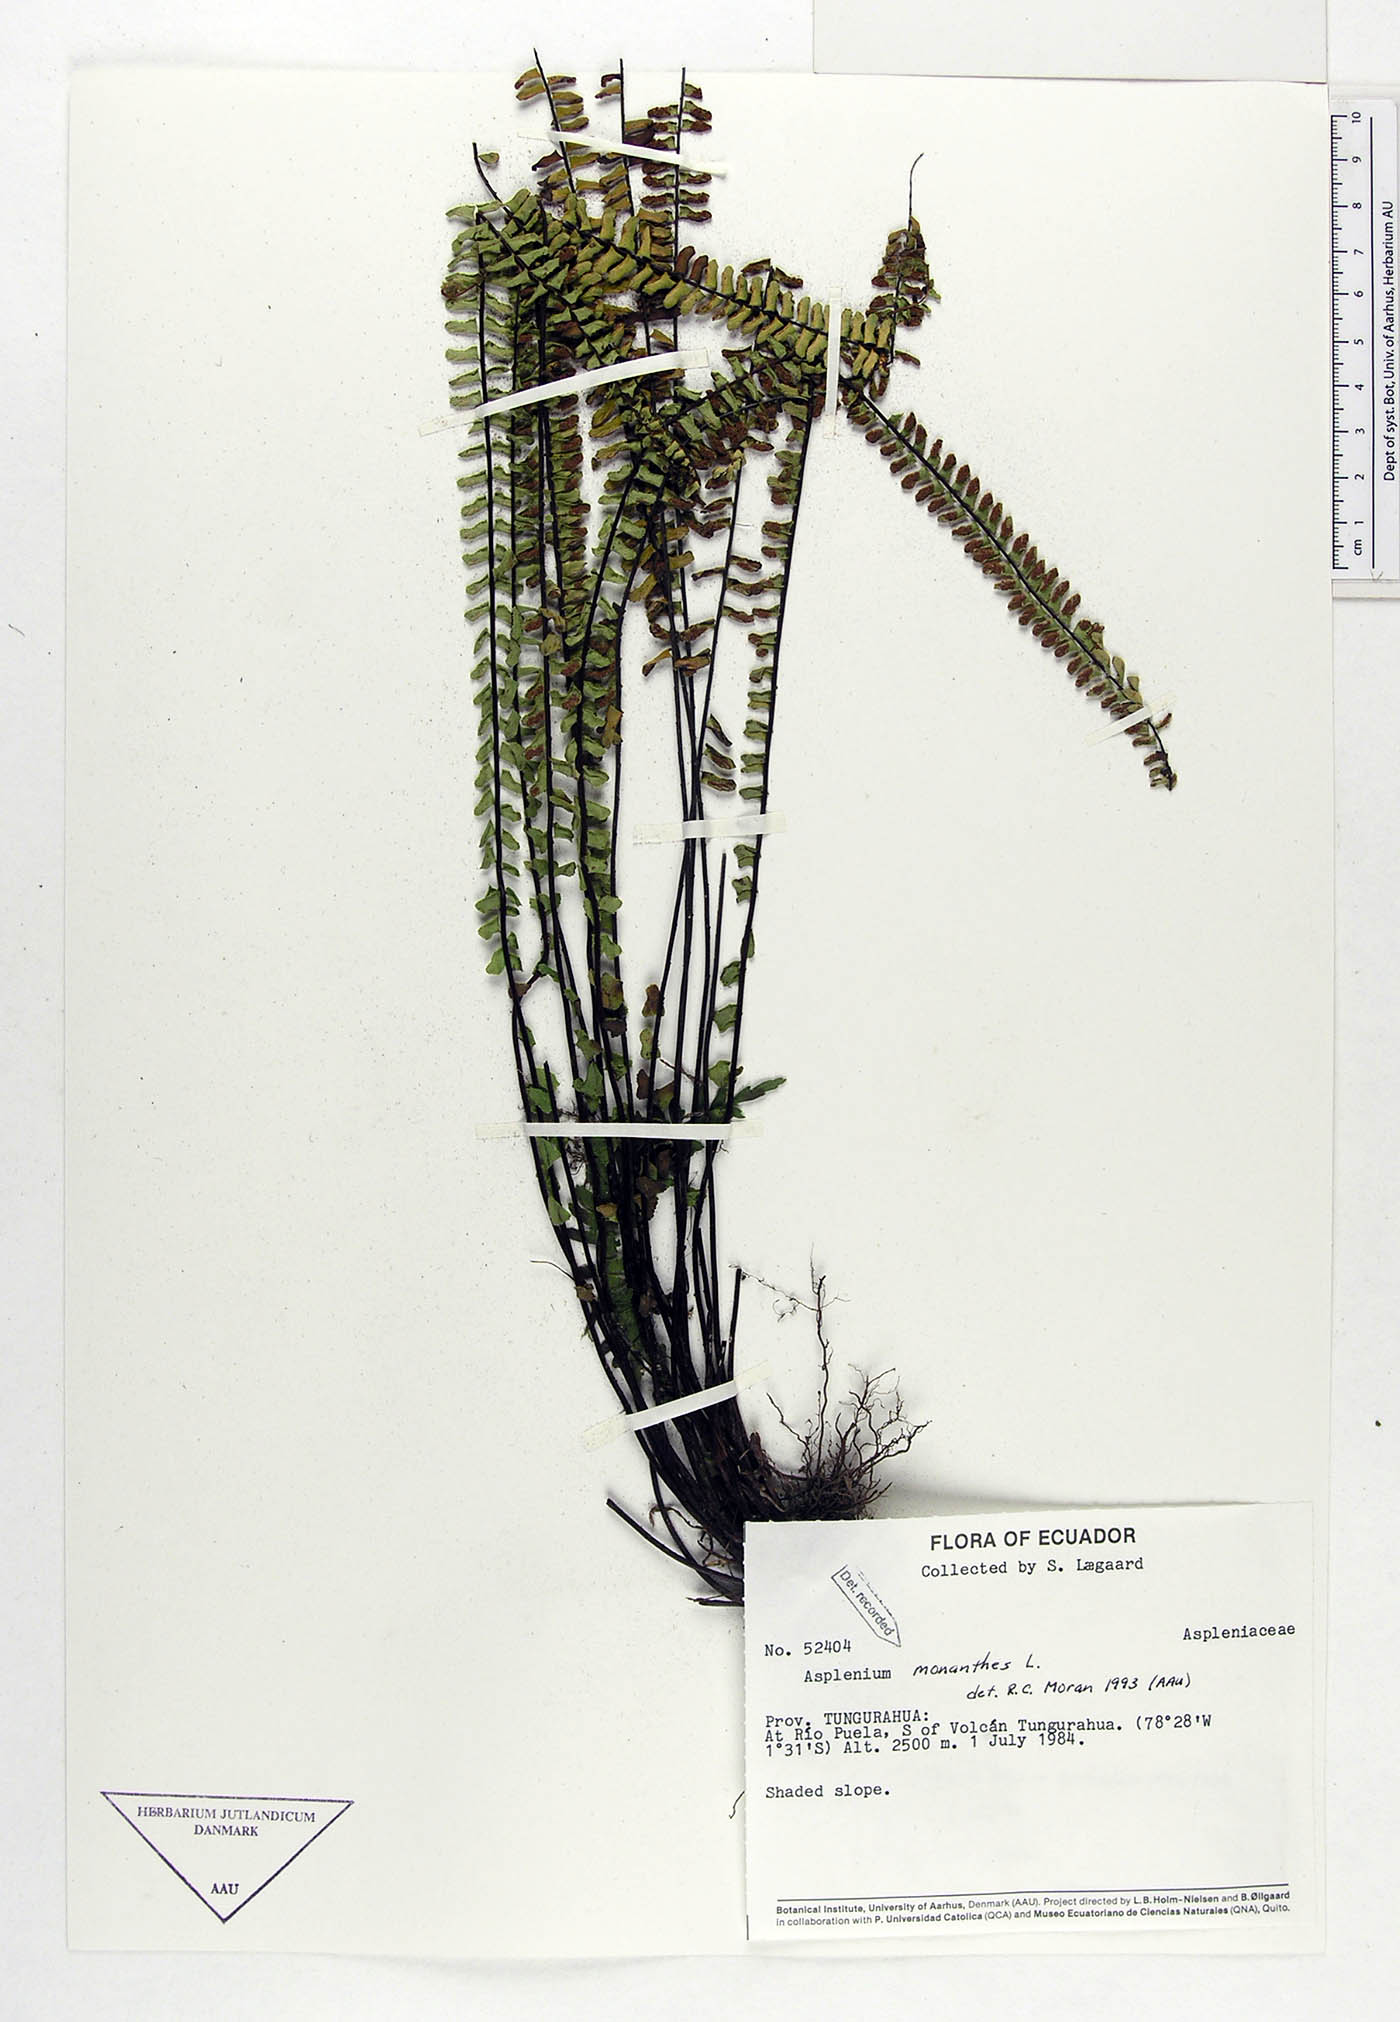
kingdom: Plantae
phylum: Tracheophyta
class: Polypodiopsida
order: Polypodiales
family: Aspleniaceae
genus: Asplenium
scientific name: Asplenium monanthes
